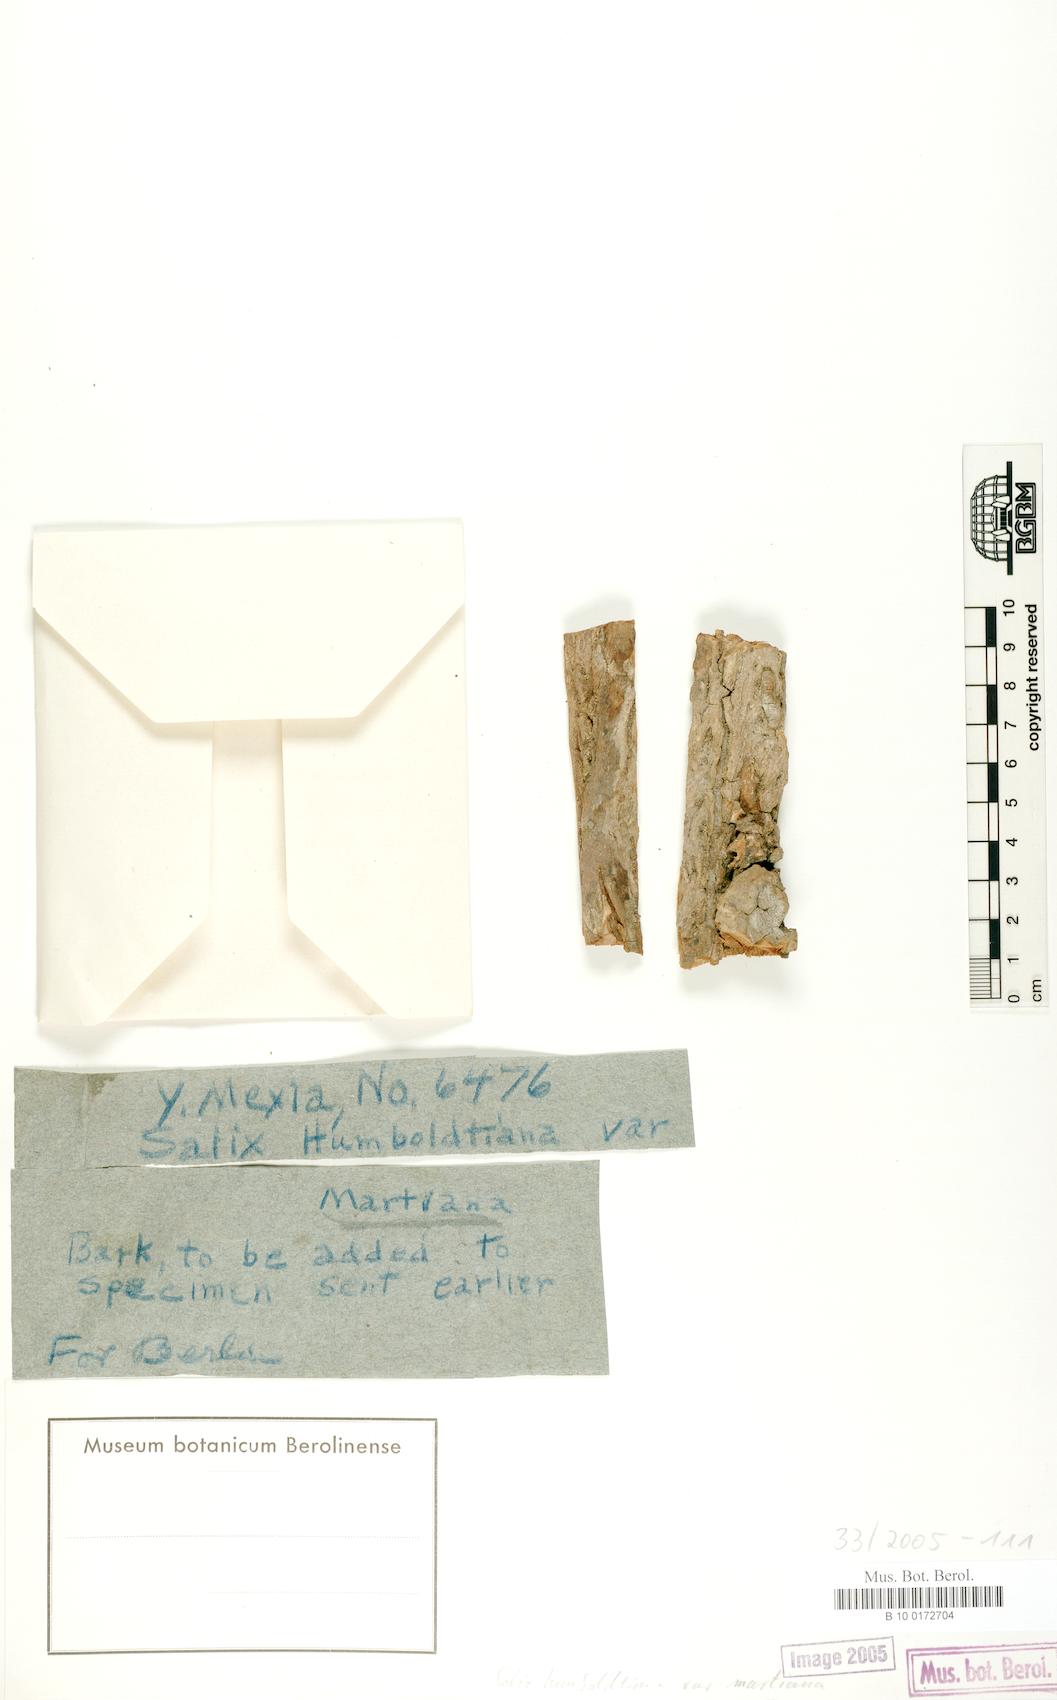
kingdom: Plantae
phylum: Tracheophyta
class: Magnoliopsida
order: Malpighiales
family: Salicaceae
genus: Salix
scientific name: Salix humboldtiana
